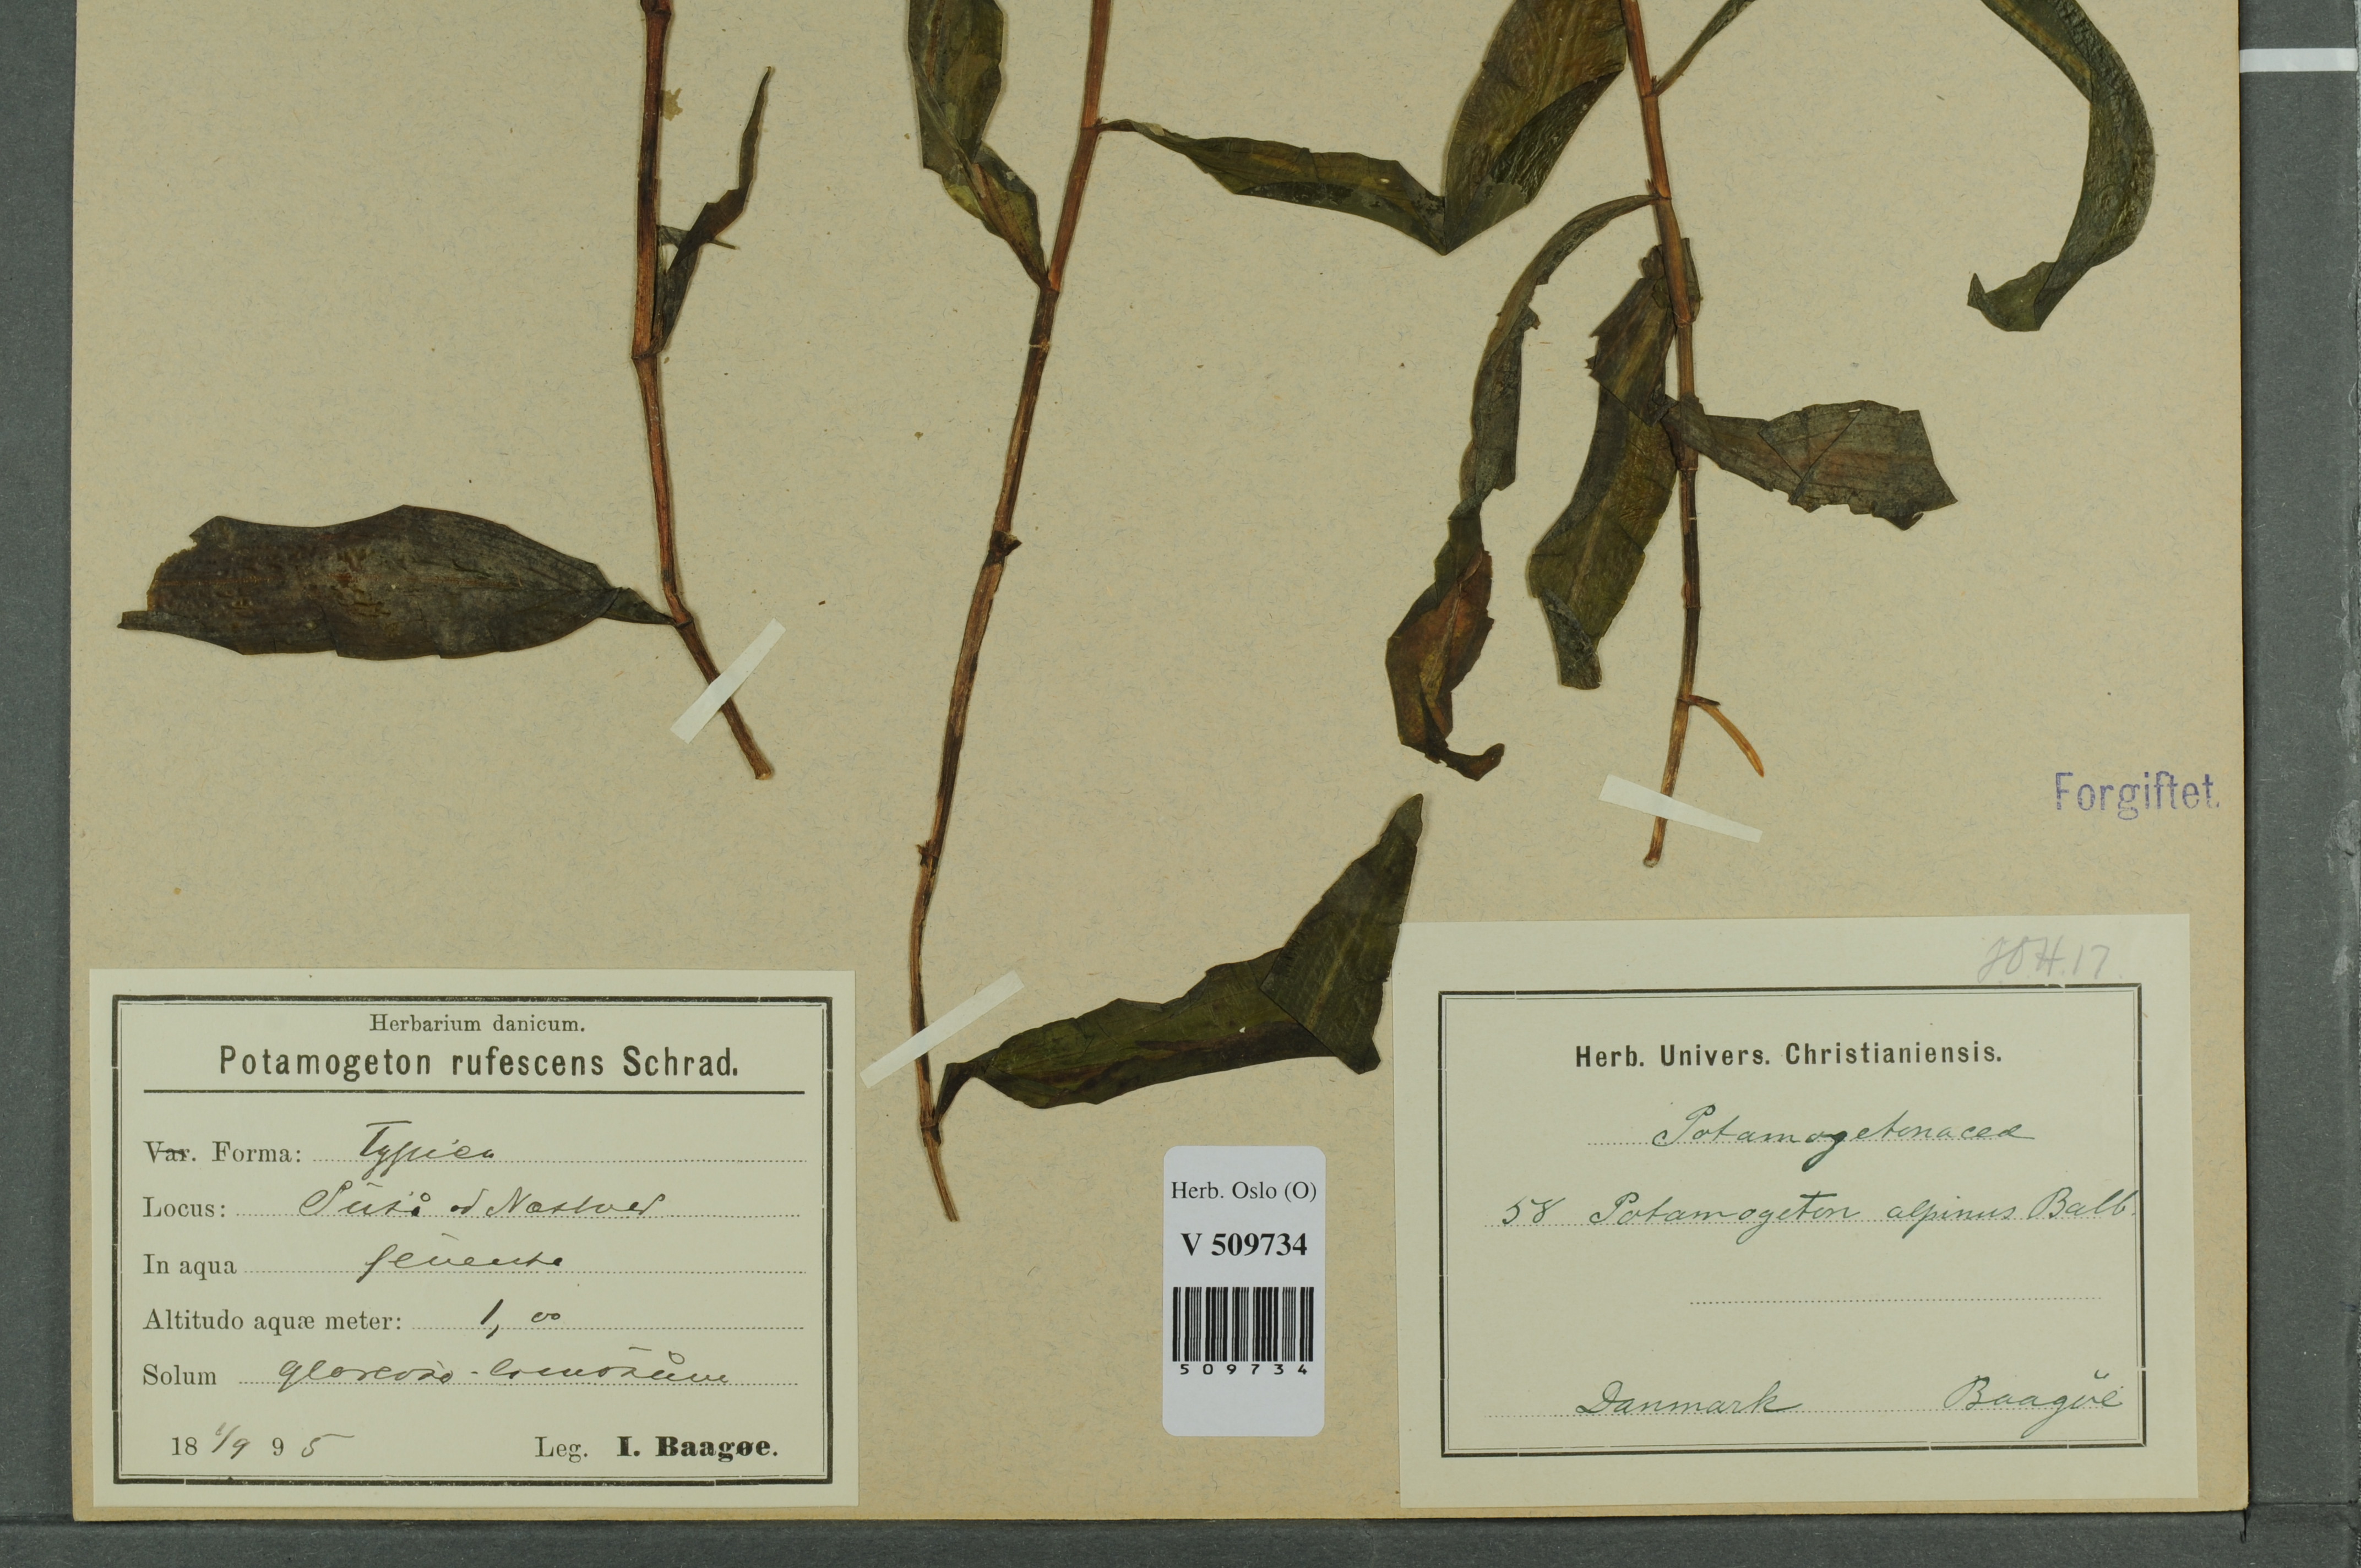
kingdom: Plantae
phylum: Tracheophyta
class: Liliopsida
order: Alismatales
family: Potamogetonaceae
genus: Potamogeton
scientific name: Potamogeton alpinus
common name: Red pondweed
